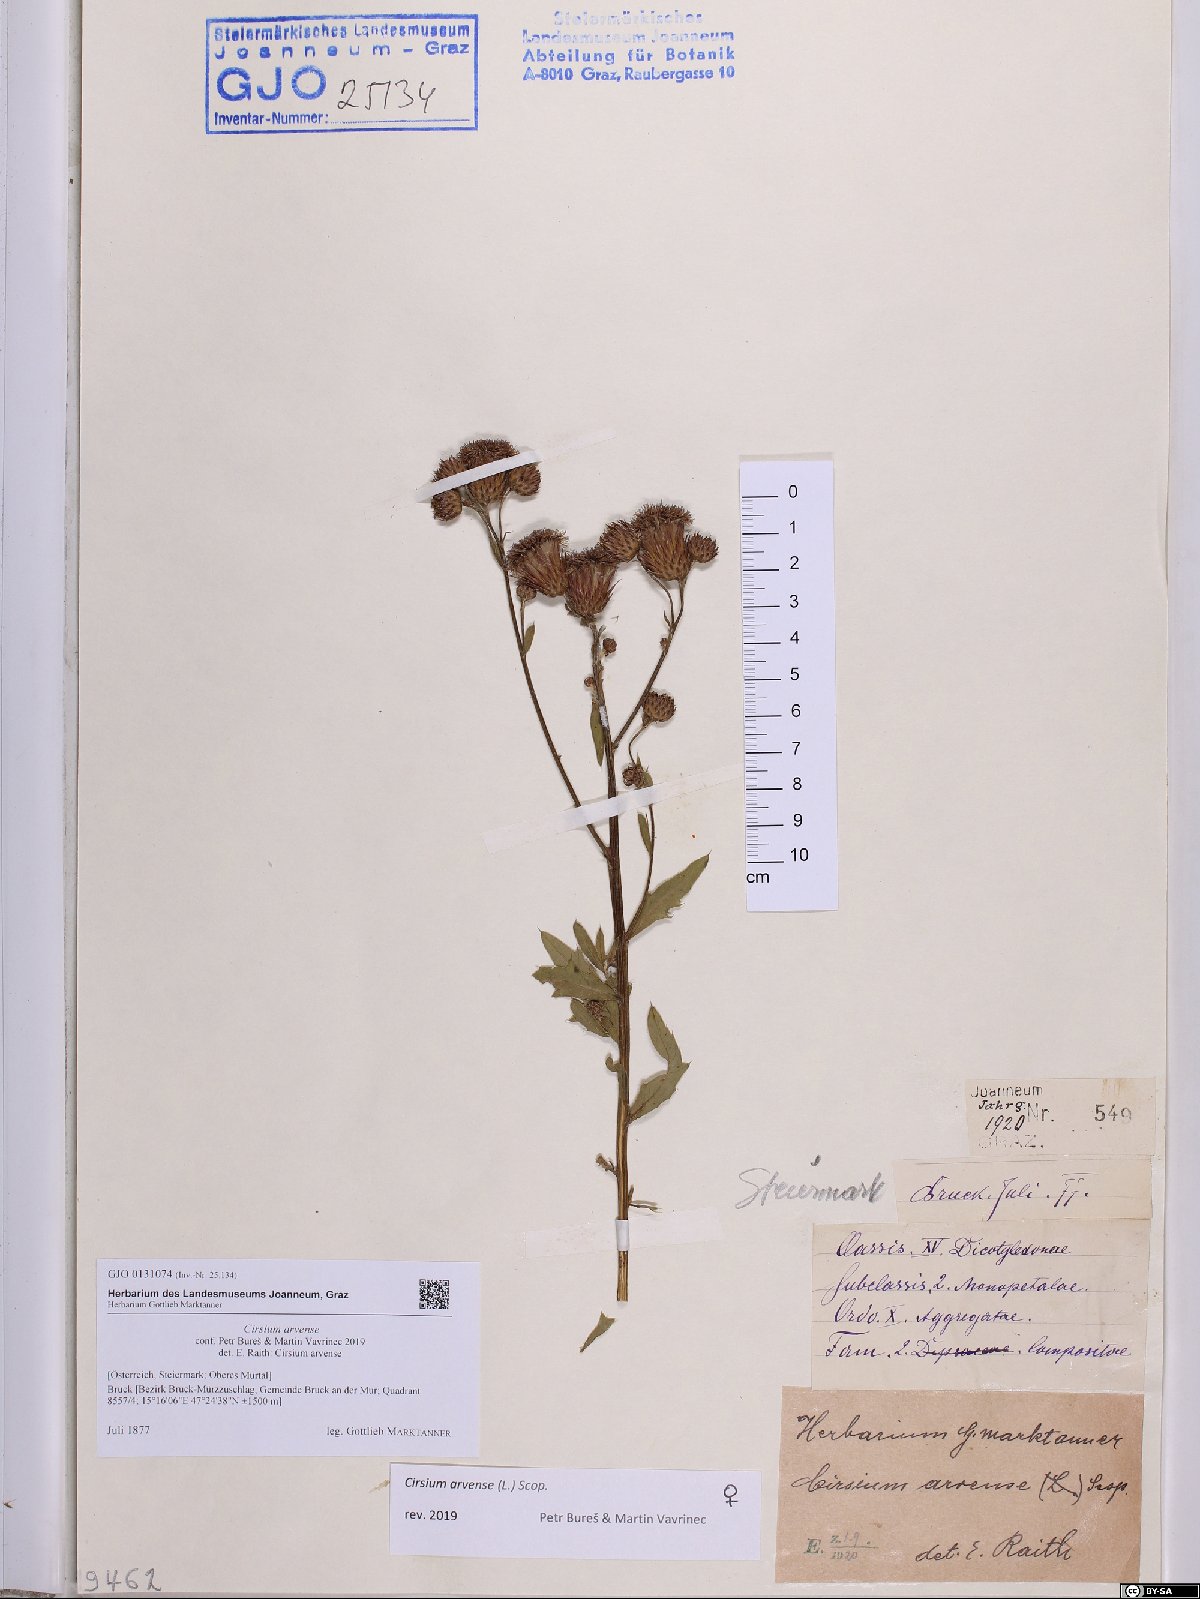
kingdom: Plantae
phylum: Tracheophyta
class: Magnoliopsida
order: Asterales
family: Asteraceae
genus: Cirsium
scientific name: Cirsium arvense
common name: Creeping thistle
